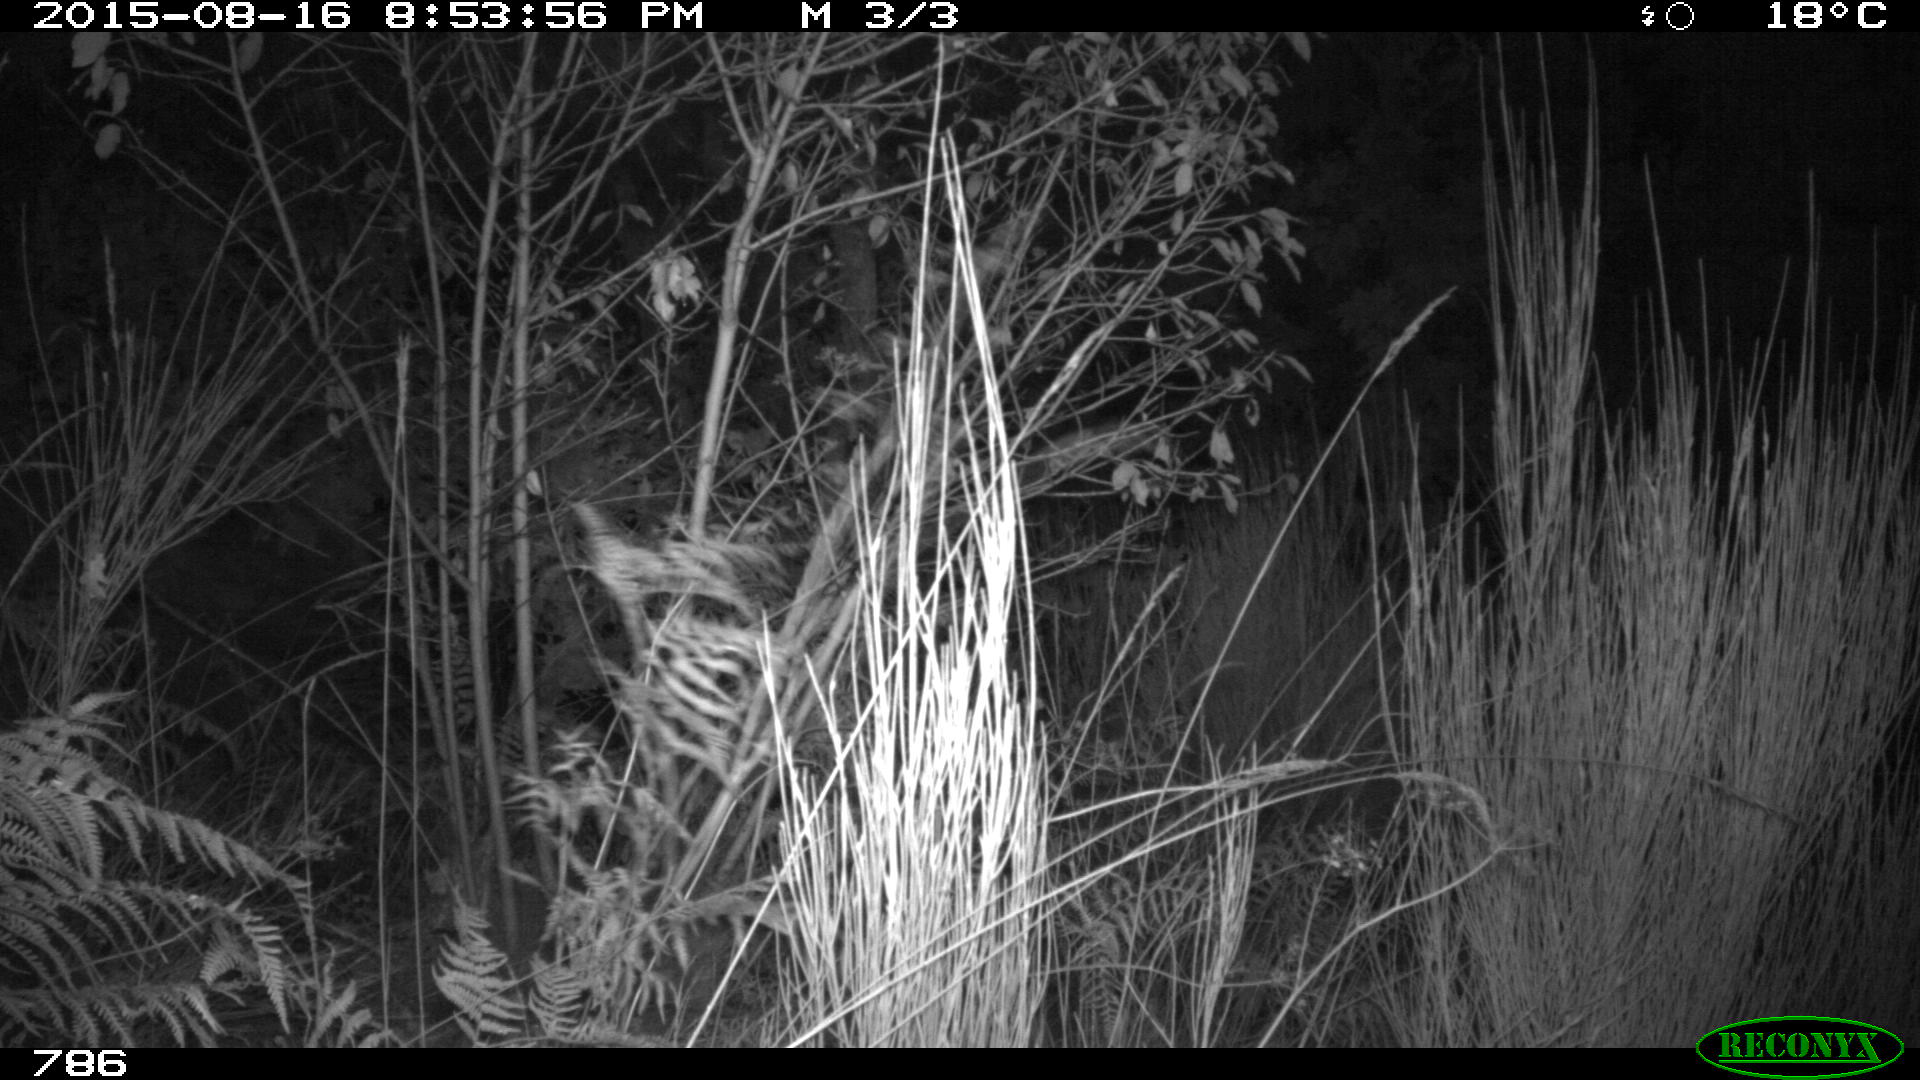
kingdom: Animalia
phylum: Chordata
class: Mammalia
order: Artiodactyla
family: Cervidae
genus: Capreolus
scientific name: Capreolus capreolus
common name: Western roe deer
